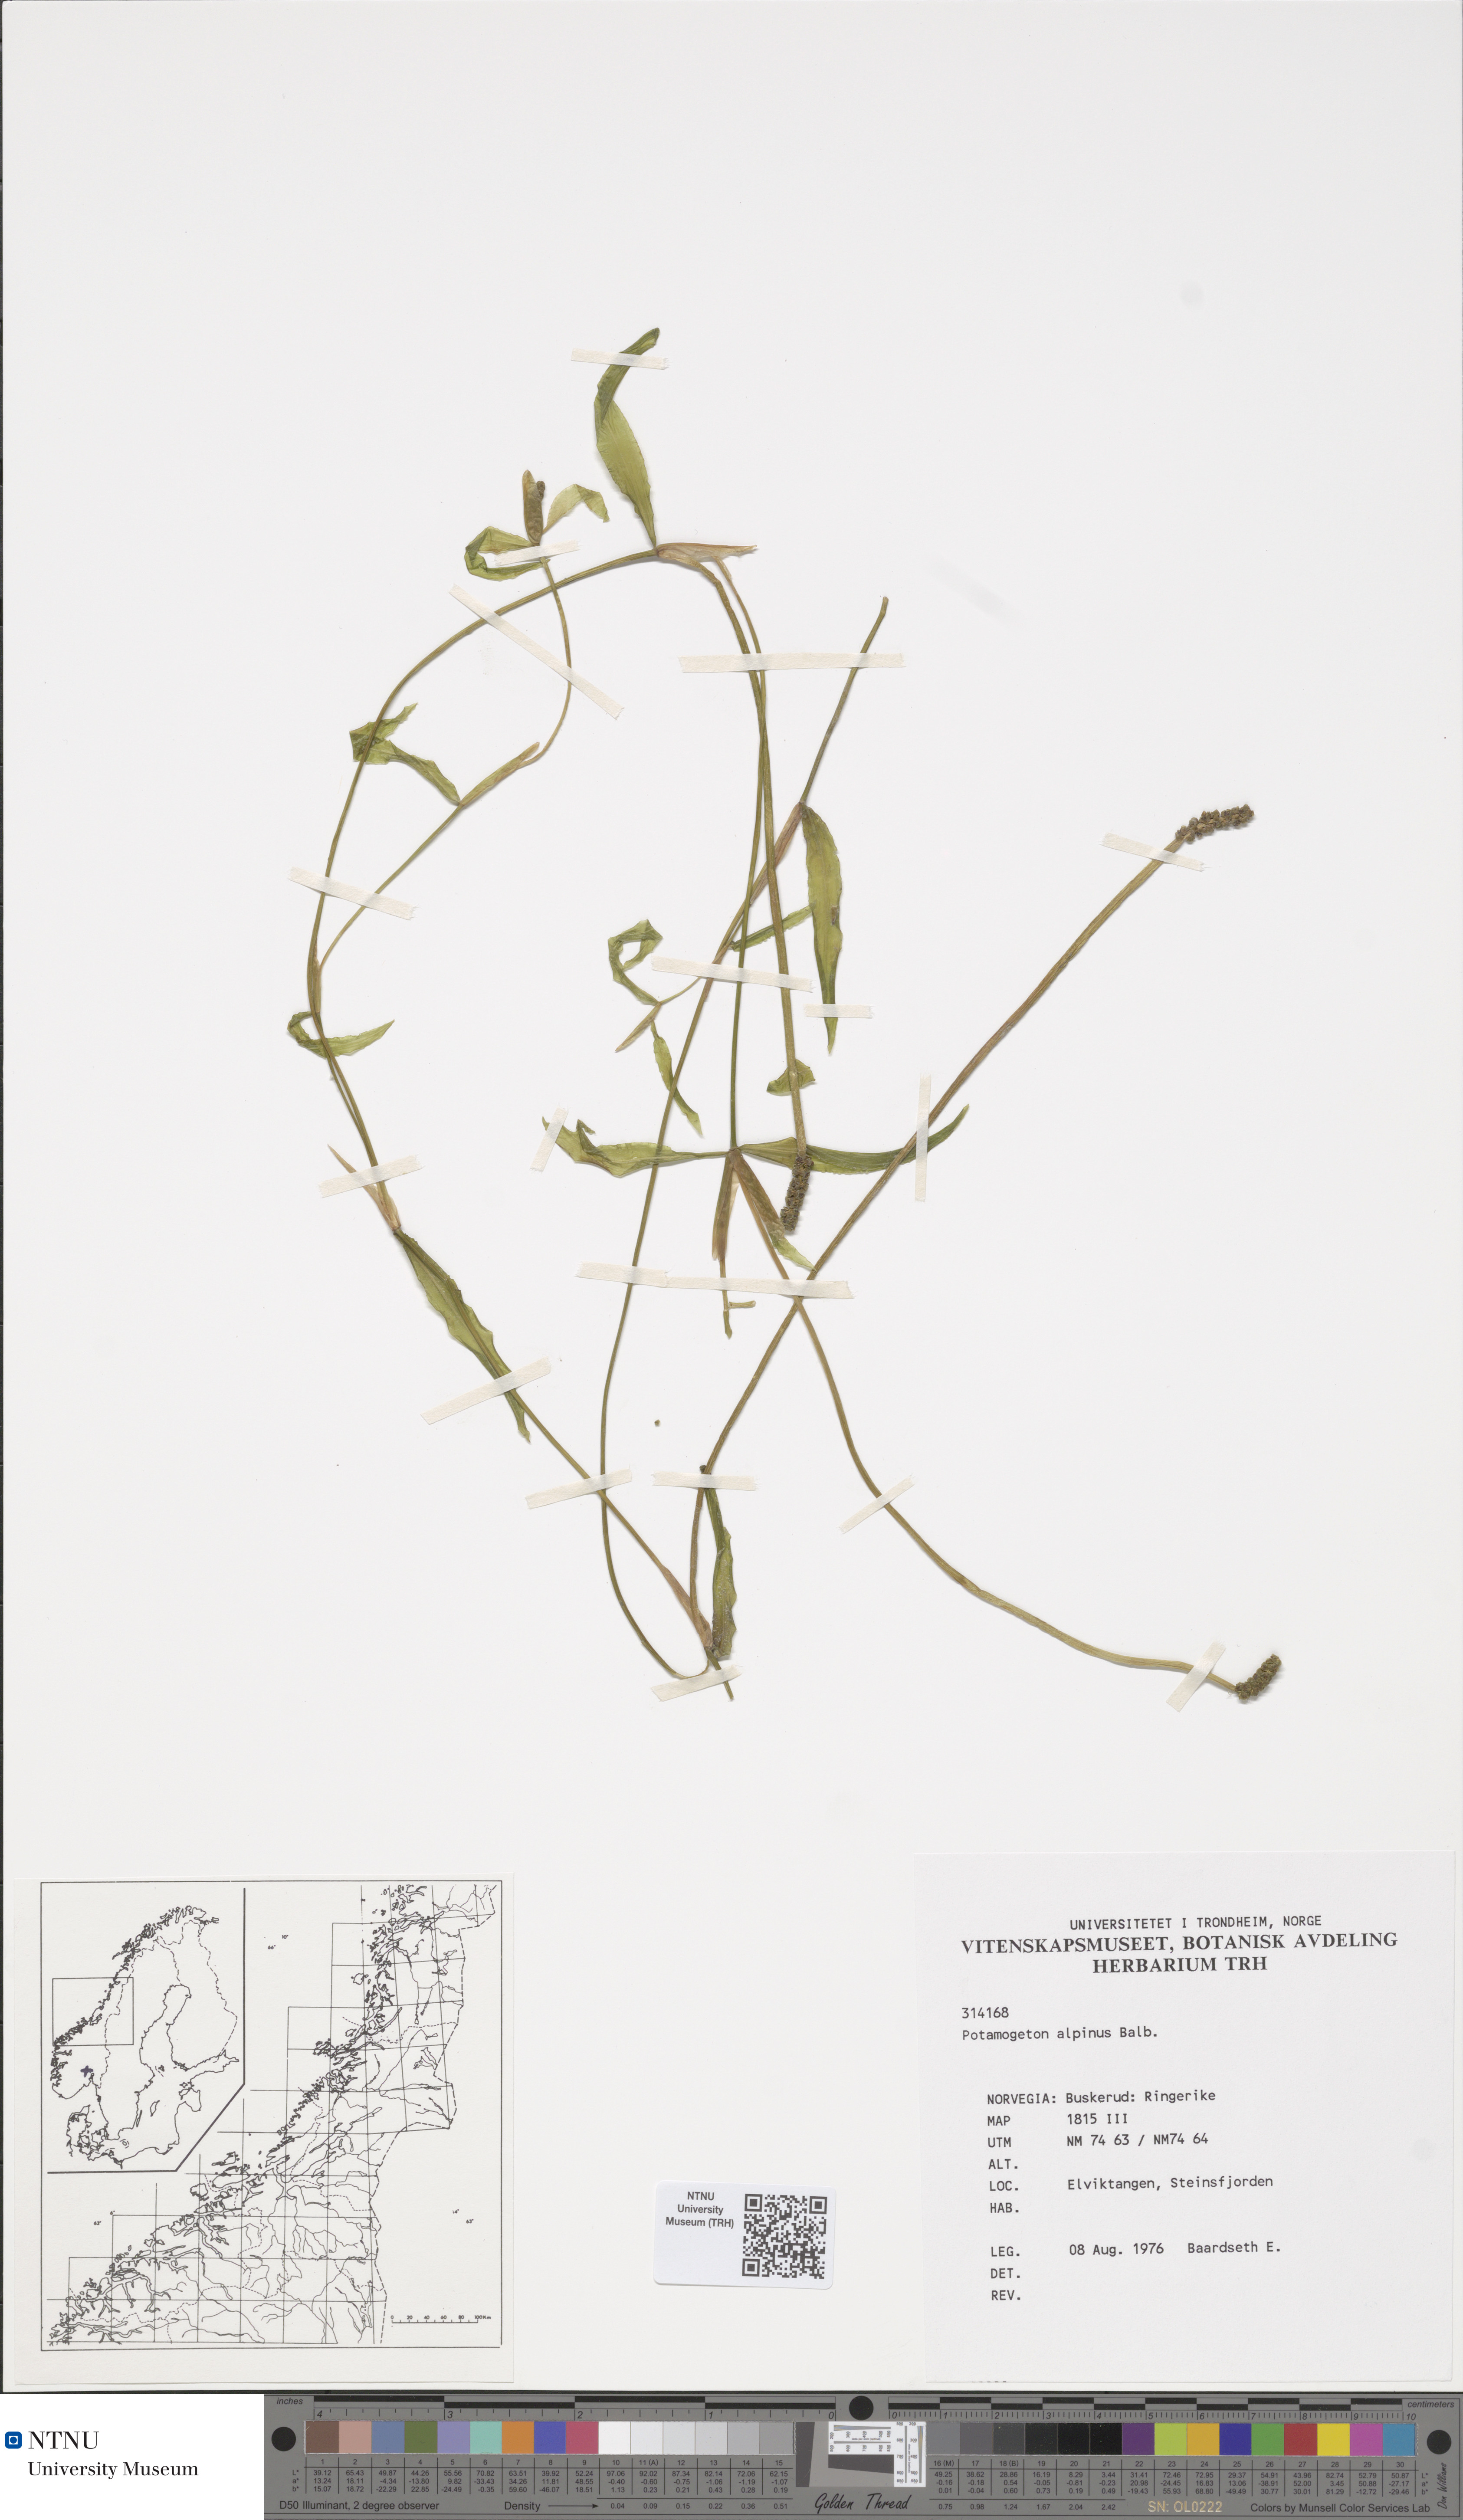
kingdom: Plantae
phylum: Tracheophyta
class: Liliopsida
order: Alismatales
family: Potamogetonaceae
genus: Potamogeton
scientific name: Potamogeton alpinus
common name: Red pondweed
